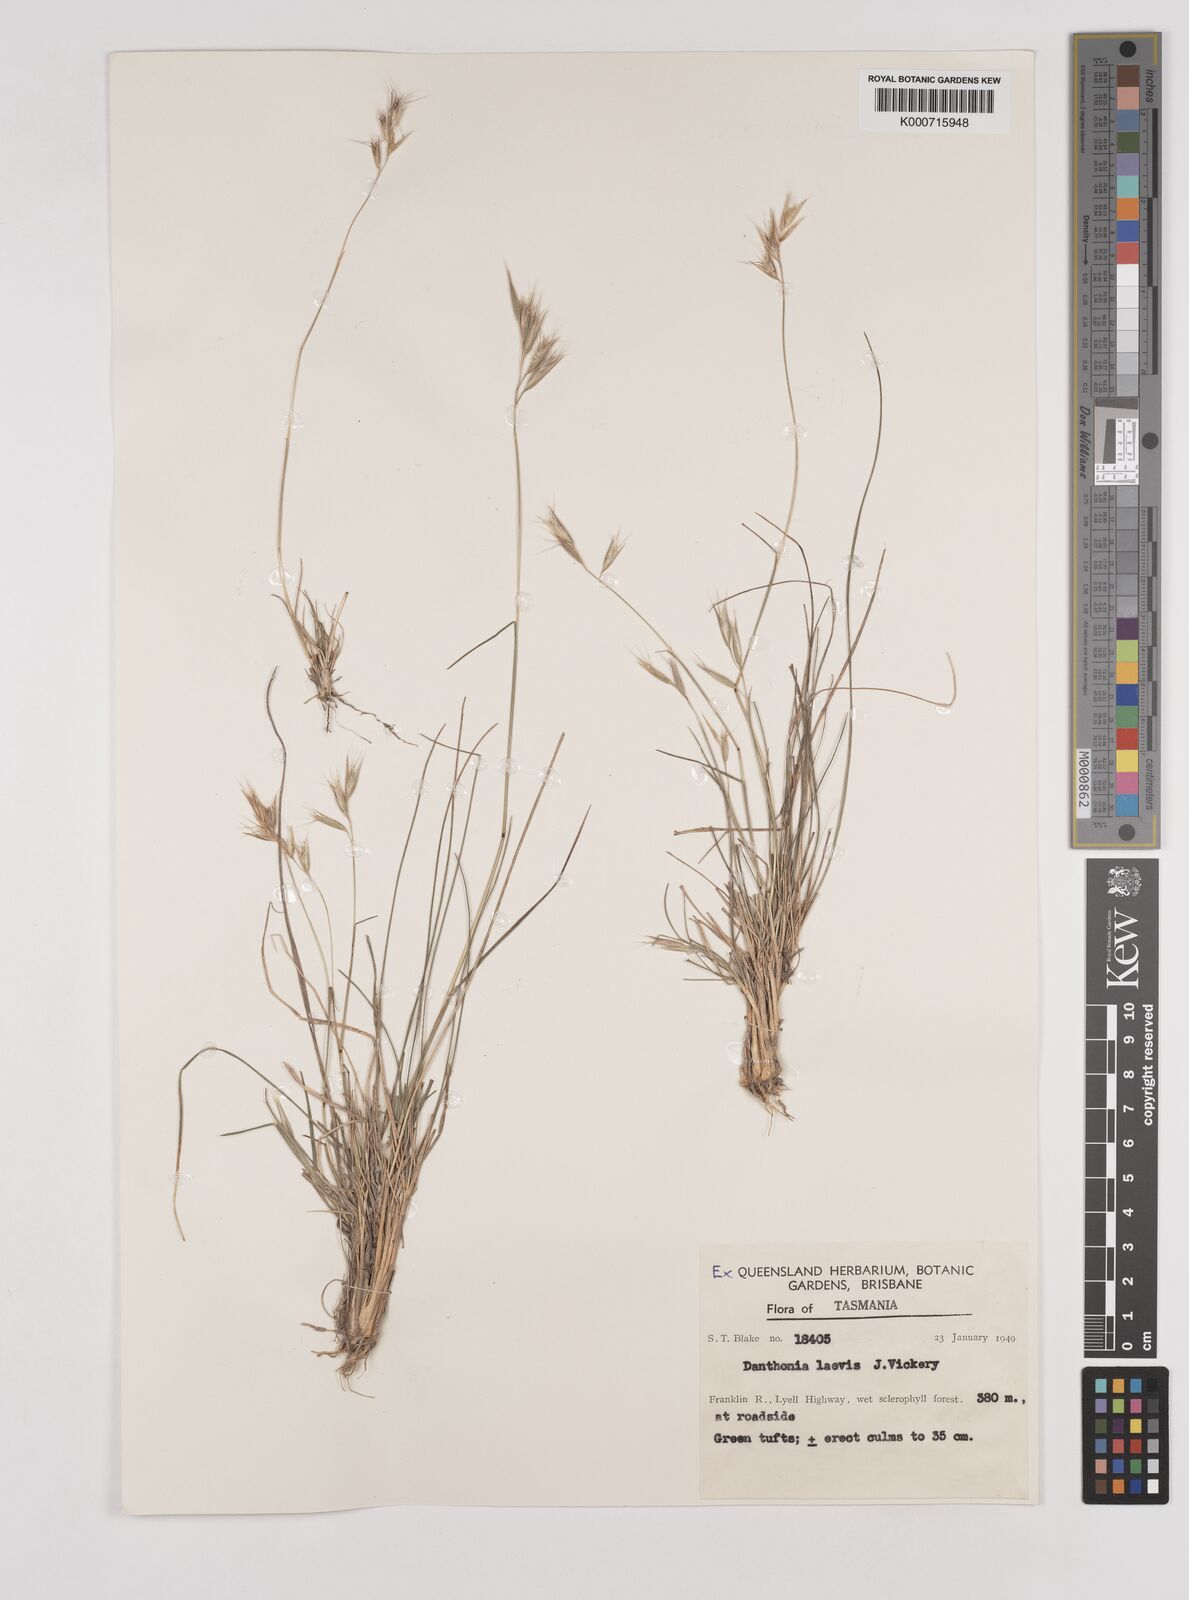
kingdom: Plantae
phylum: Tracheophyta
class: Liliopsida
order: Poales
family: Poaceae
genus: Rytidosperma
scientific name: Rytidosperma laeve
